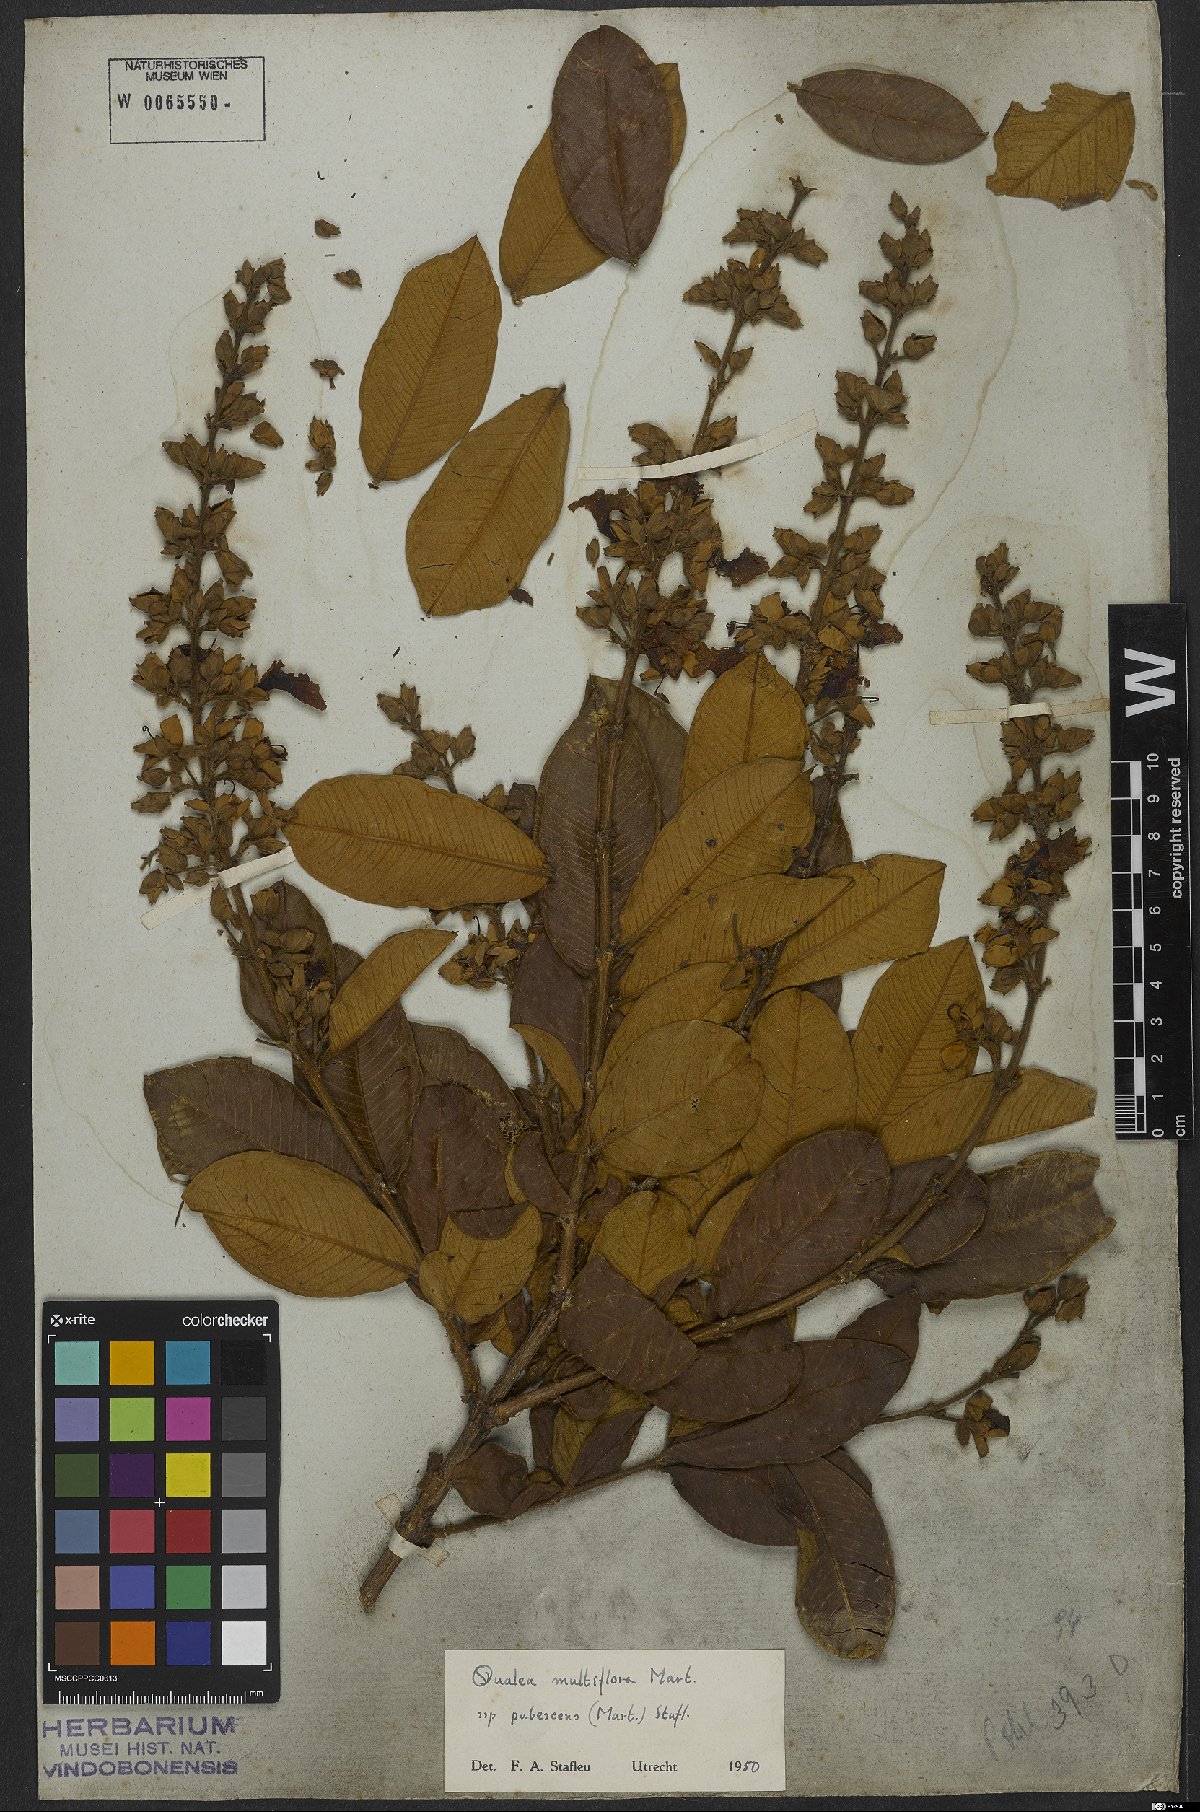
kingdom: Plantae
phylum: Tracheophyta
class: Magnoliopsida
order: Myrtales
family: Vochysiaceae
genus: Qualea
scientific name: Qualea multiflora
